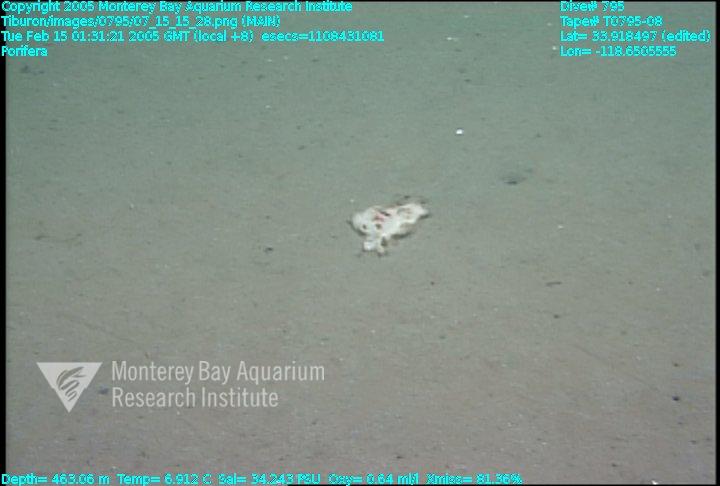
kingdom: Animalia
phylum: Porifera
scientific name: Porifera
